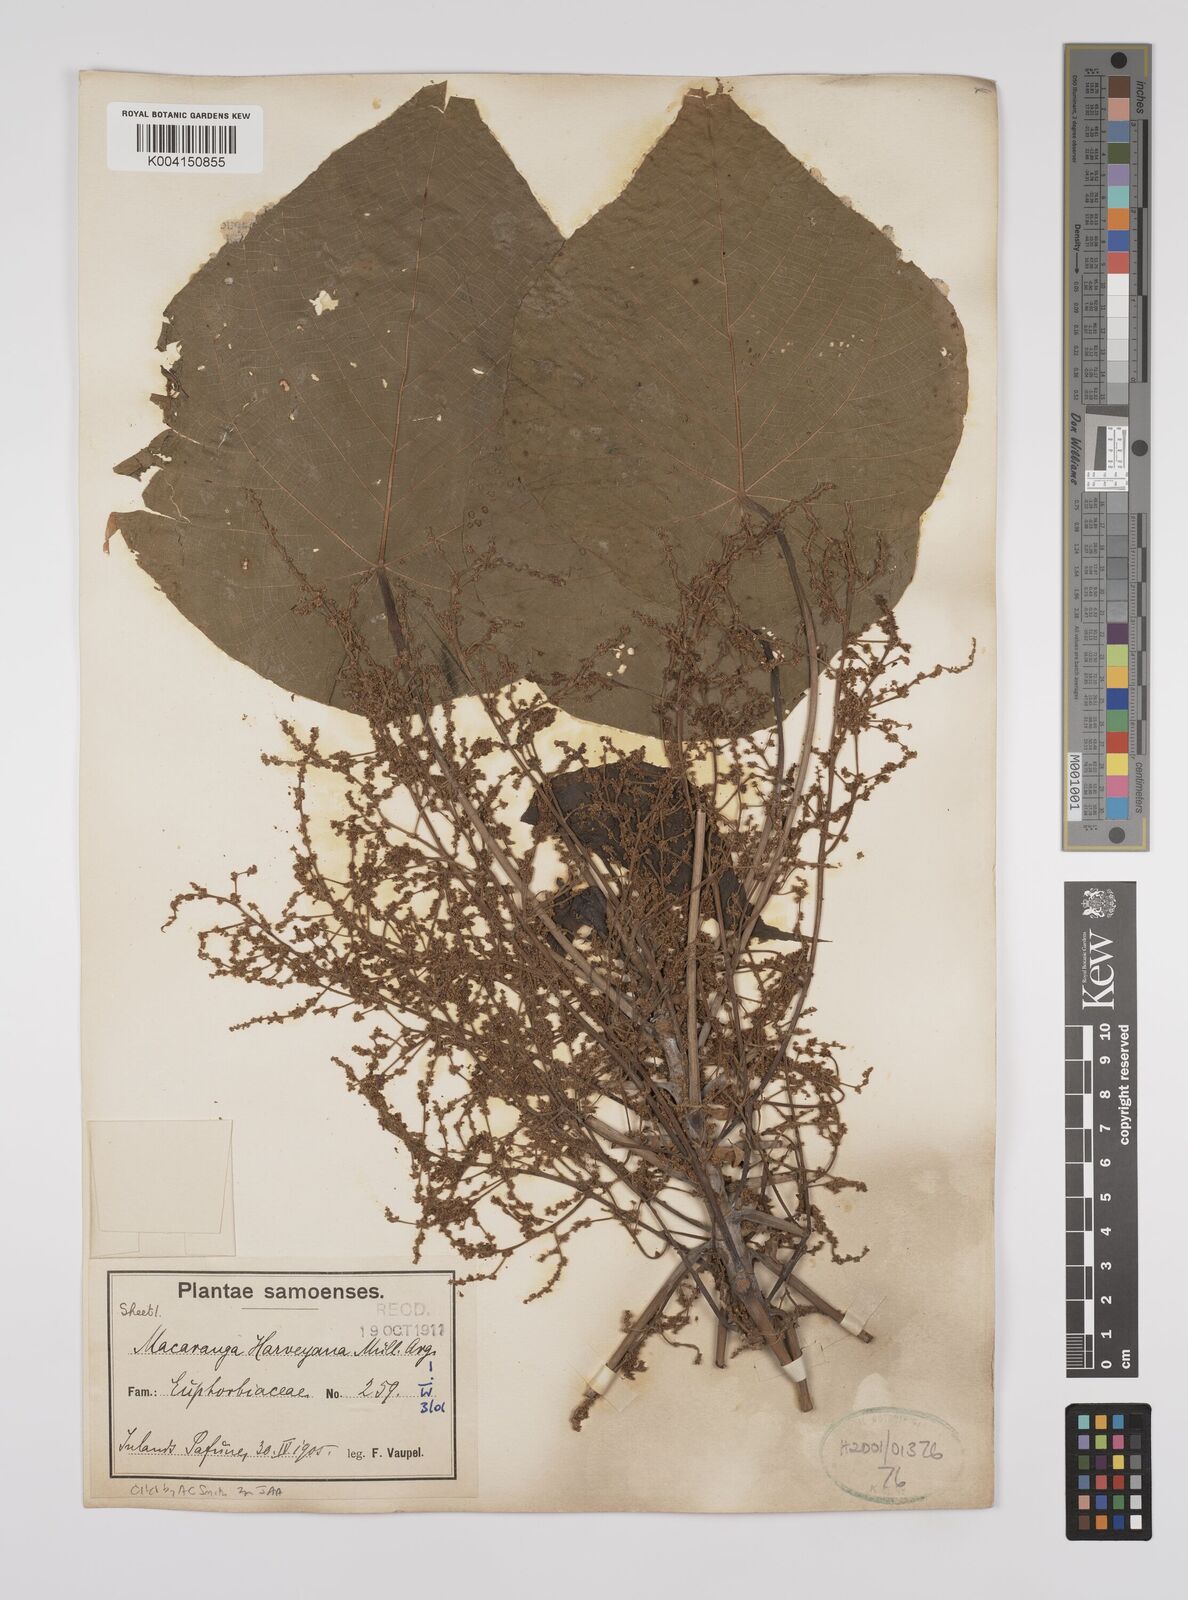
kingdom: Plantae
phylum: Tracheophyta
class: Magnoliopsida
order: Malpighiales
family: Euphorbiaceae
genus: Macaranga
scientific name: Macaranga harveyana
